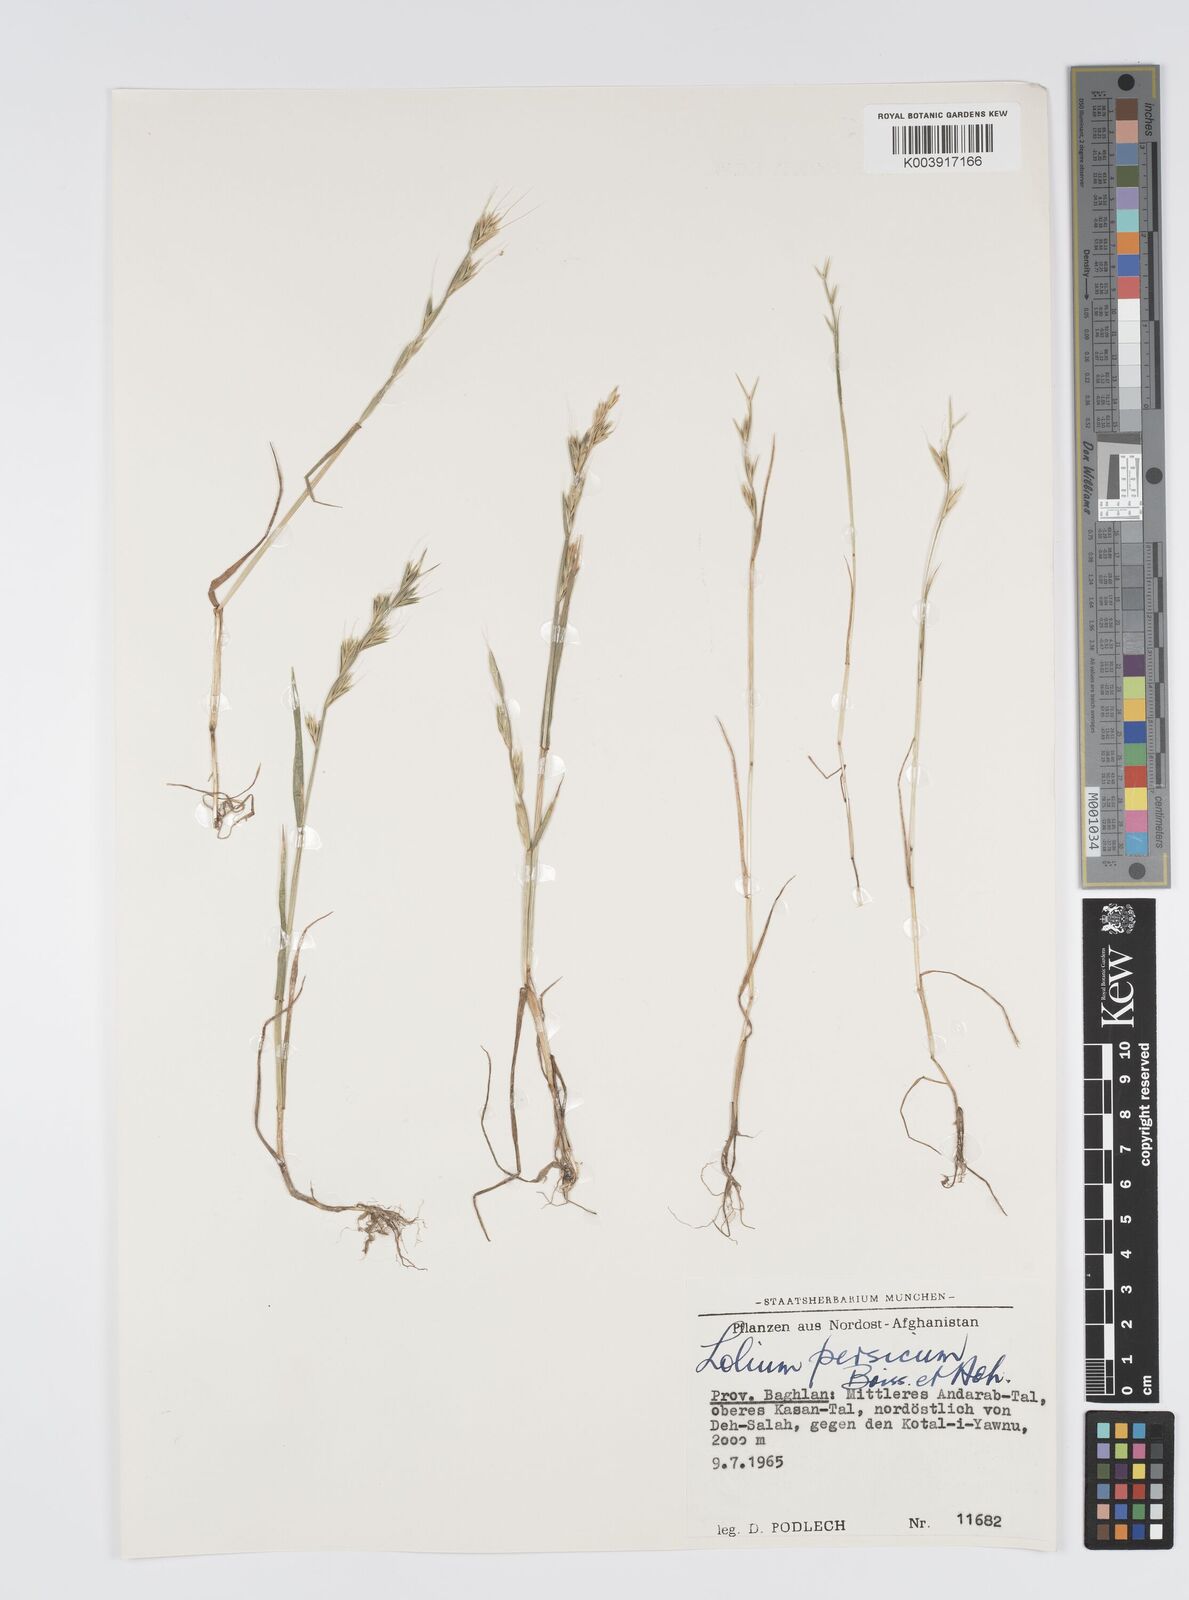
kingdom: Plantae
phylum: Tracheophyta
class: Liliopsida
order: Poales
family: Poaceae
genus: Lolium
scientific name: Lolium persicum
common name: Persian ryegrass
